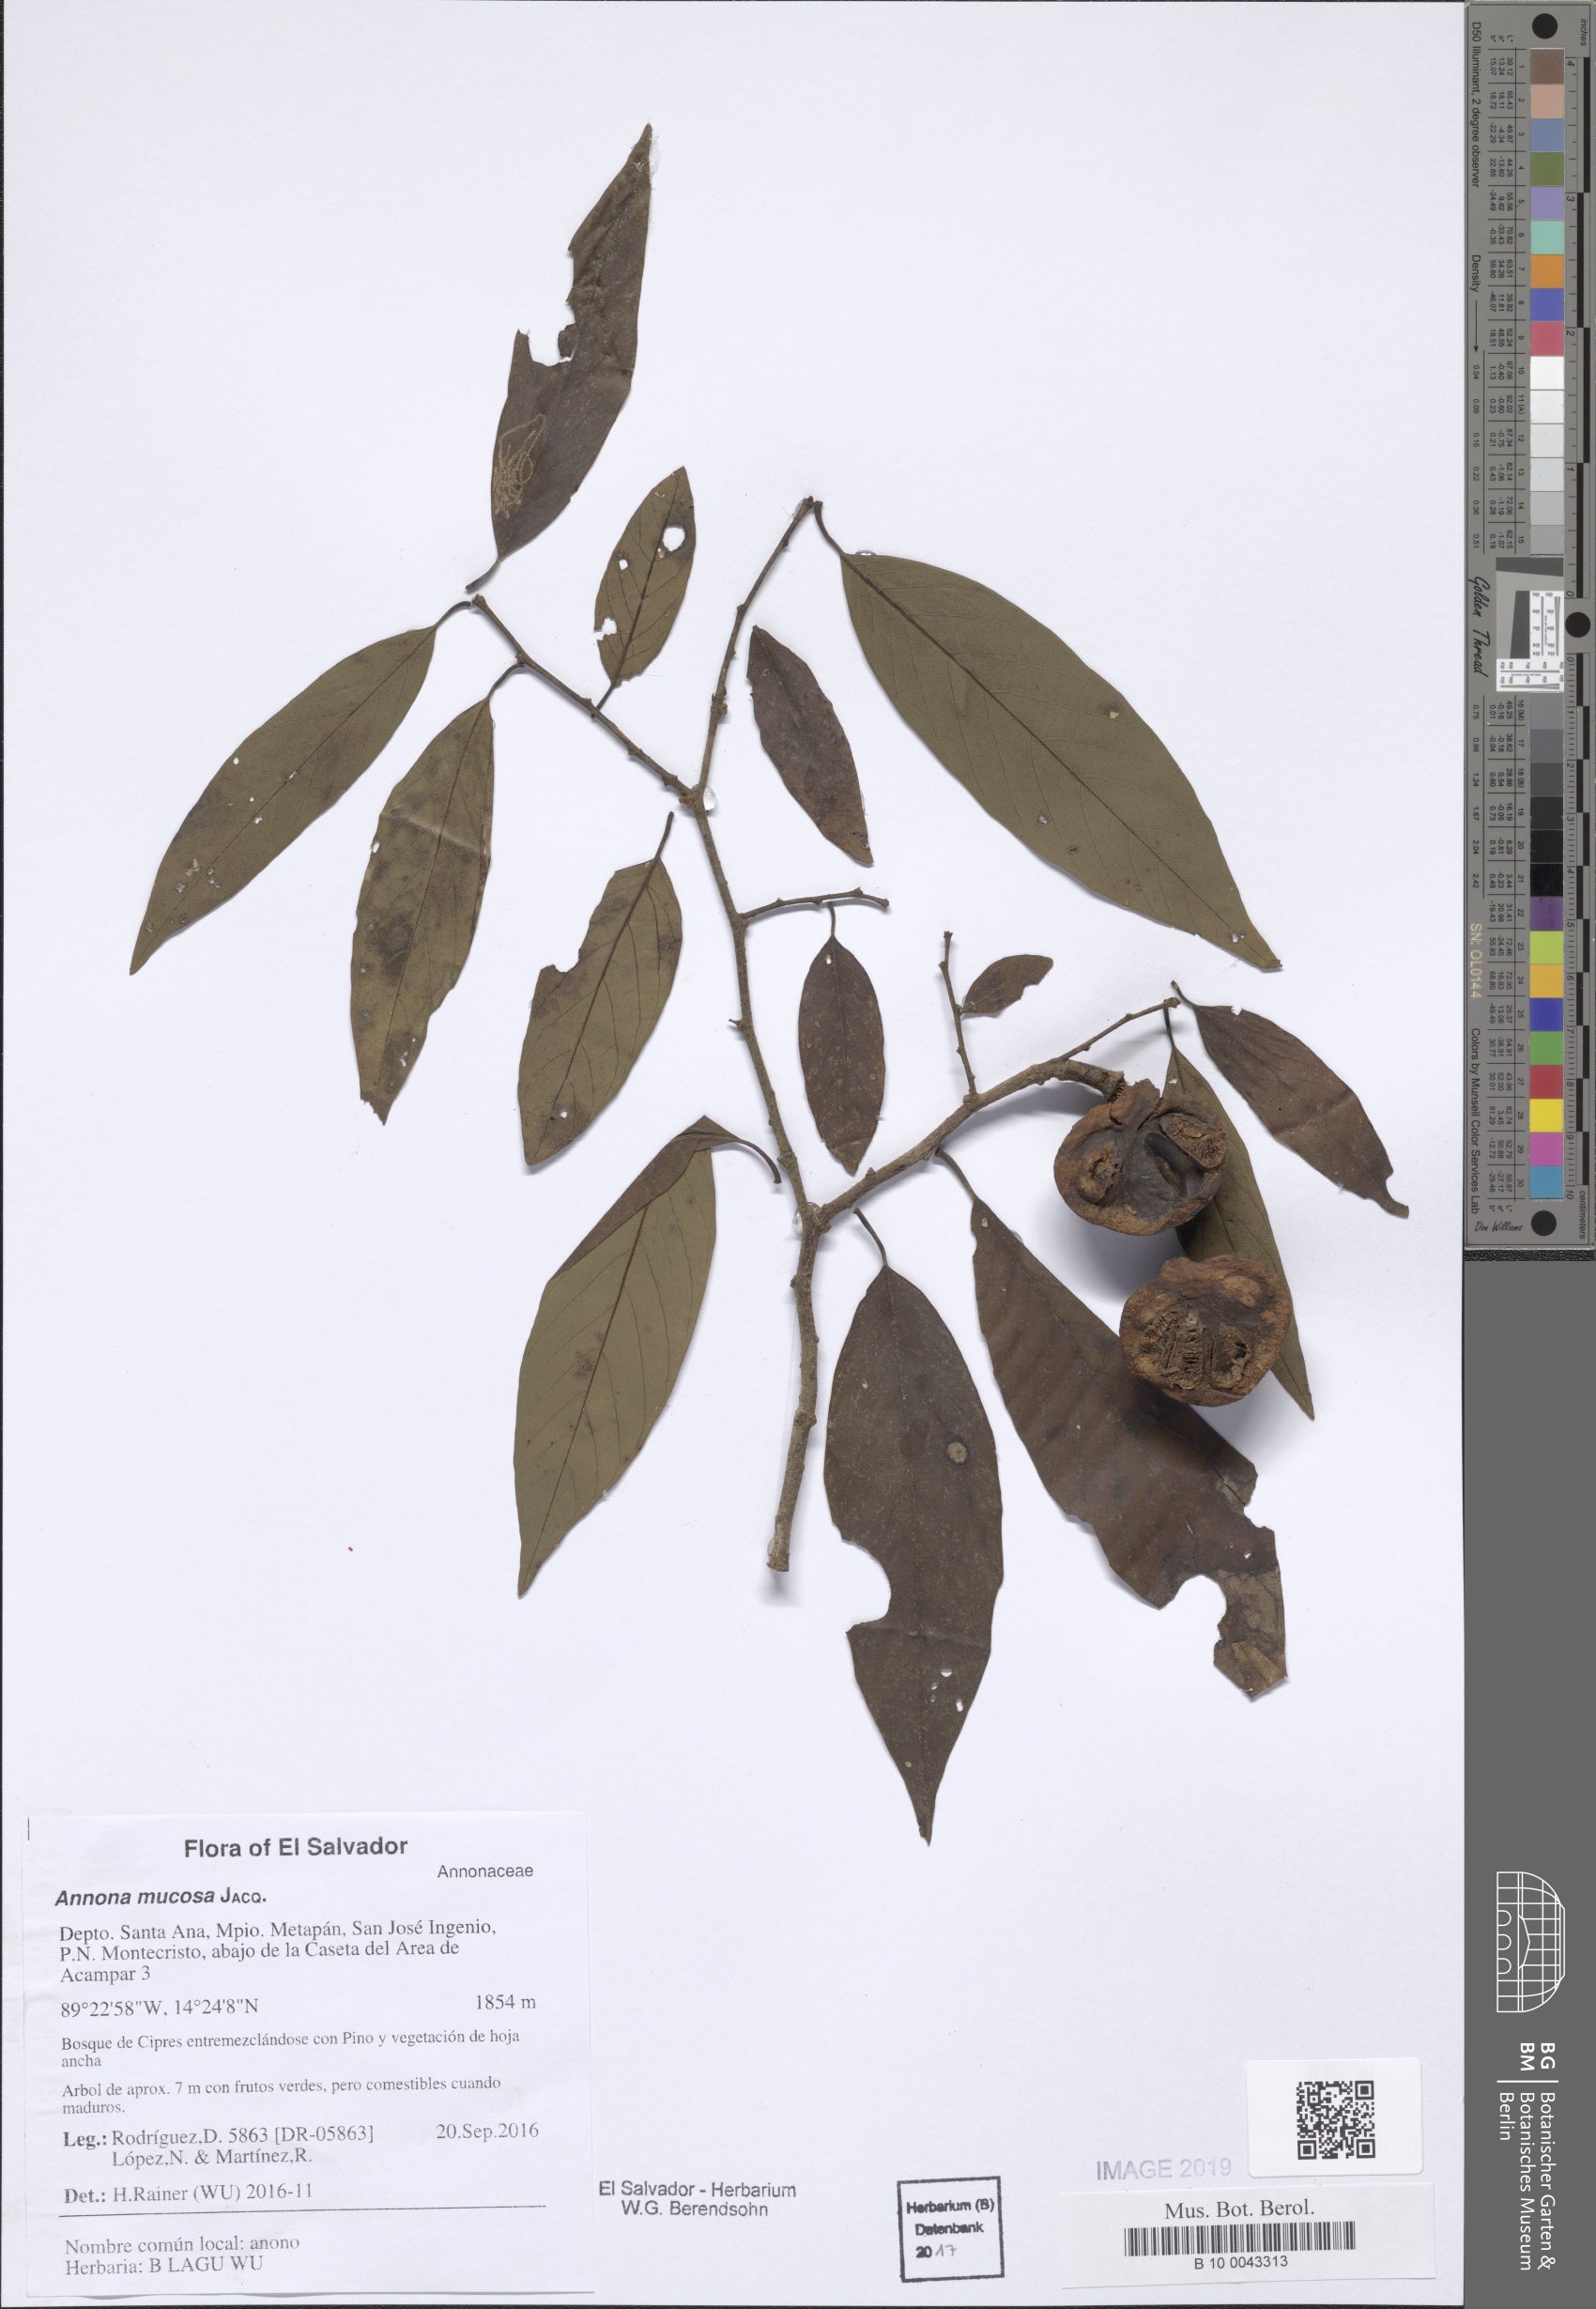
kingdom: Plantae
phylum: Tracheophyta
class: Magnoliopsida
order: Magnoliales
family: Annonaceae
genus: Annona
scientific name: Annona mucosa
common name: Sugar apple
